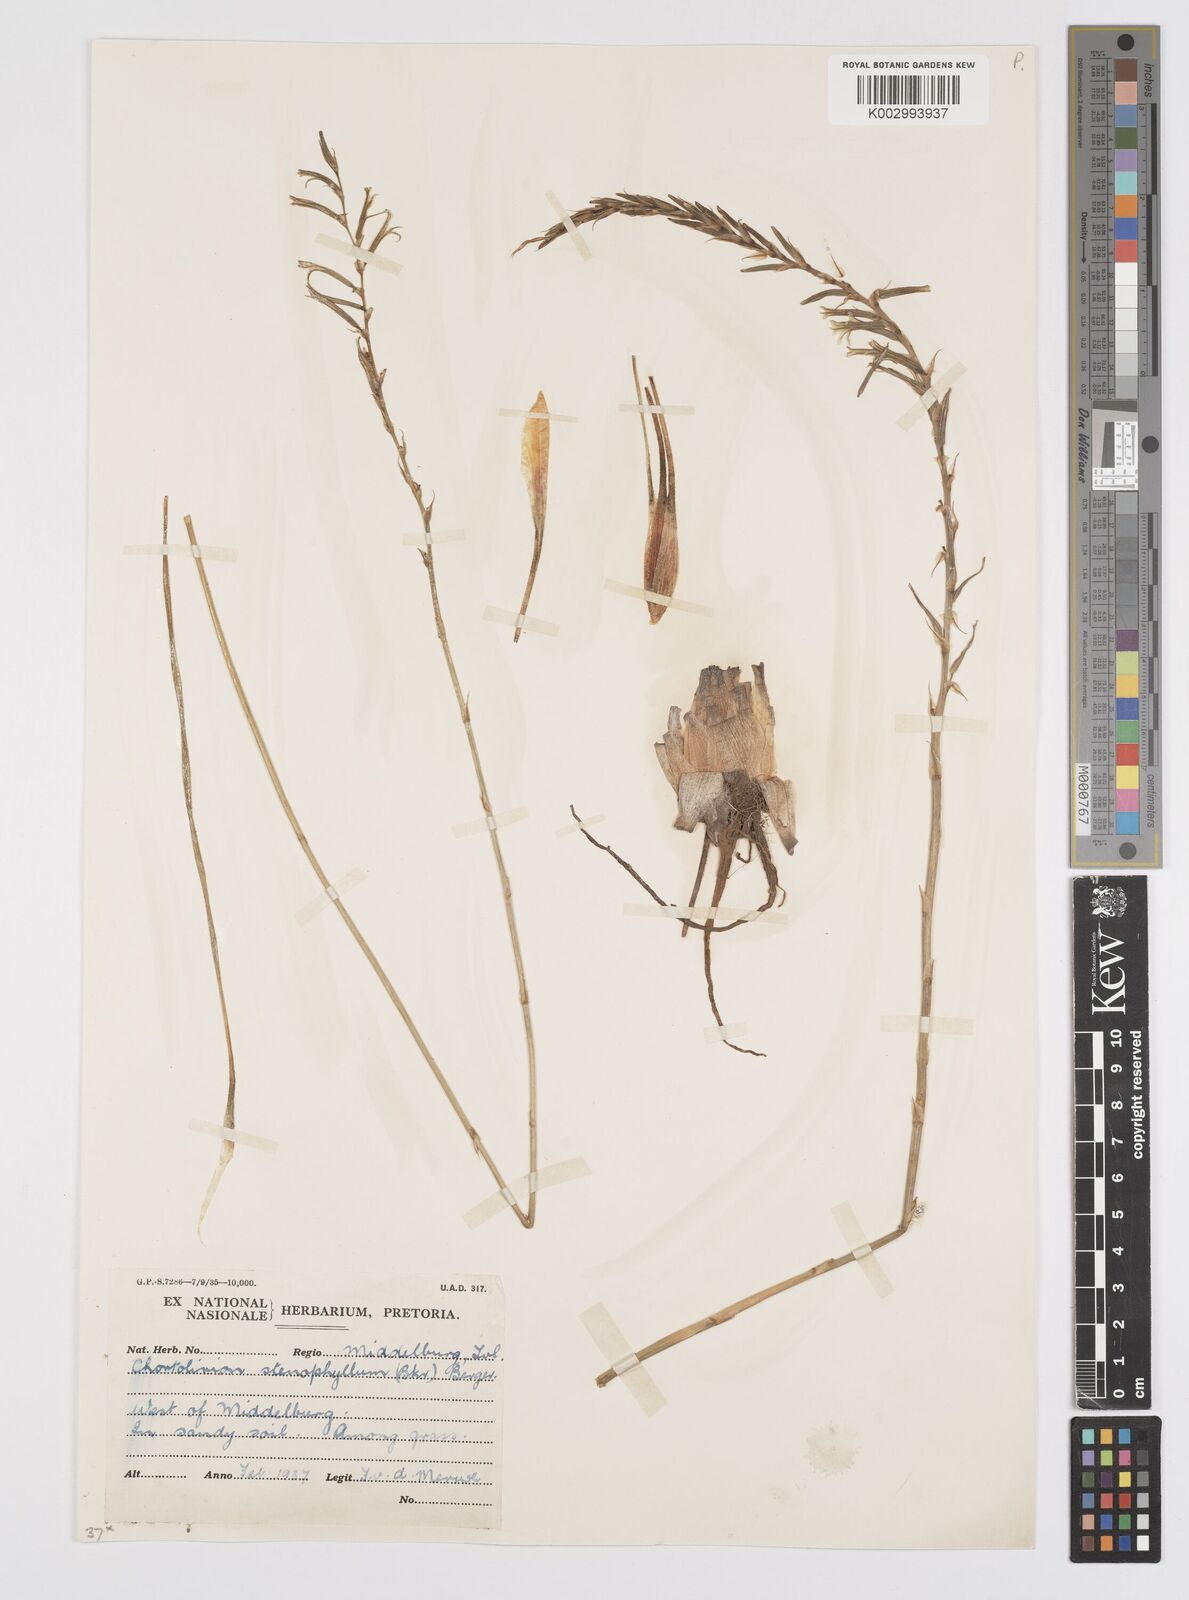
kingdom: Plantae
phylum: Tracheophyta
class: Liliopsida
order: Asparagales
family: Asphodelaceae
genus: Aloe
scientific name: Aloe welwitschii
